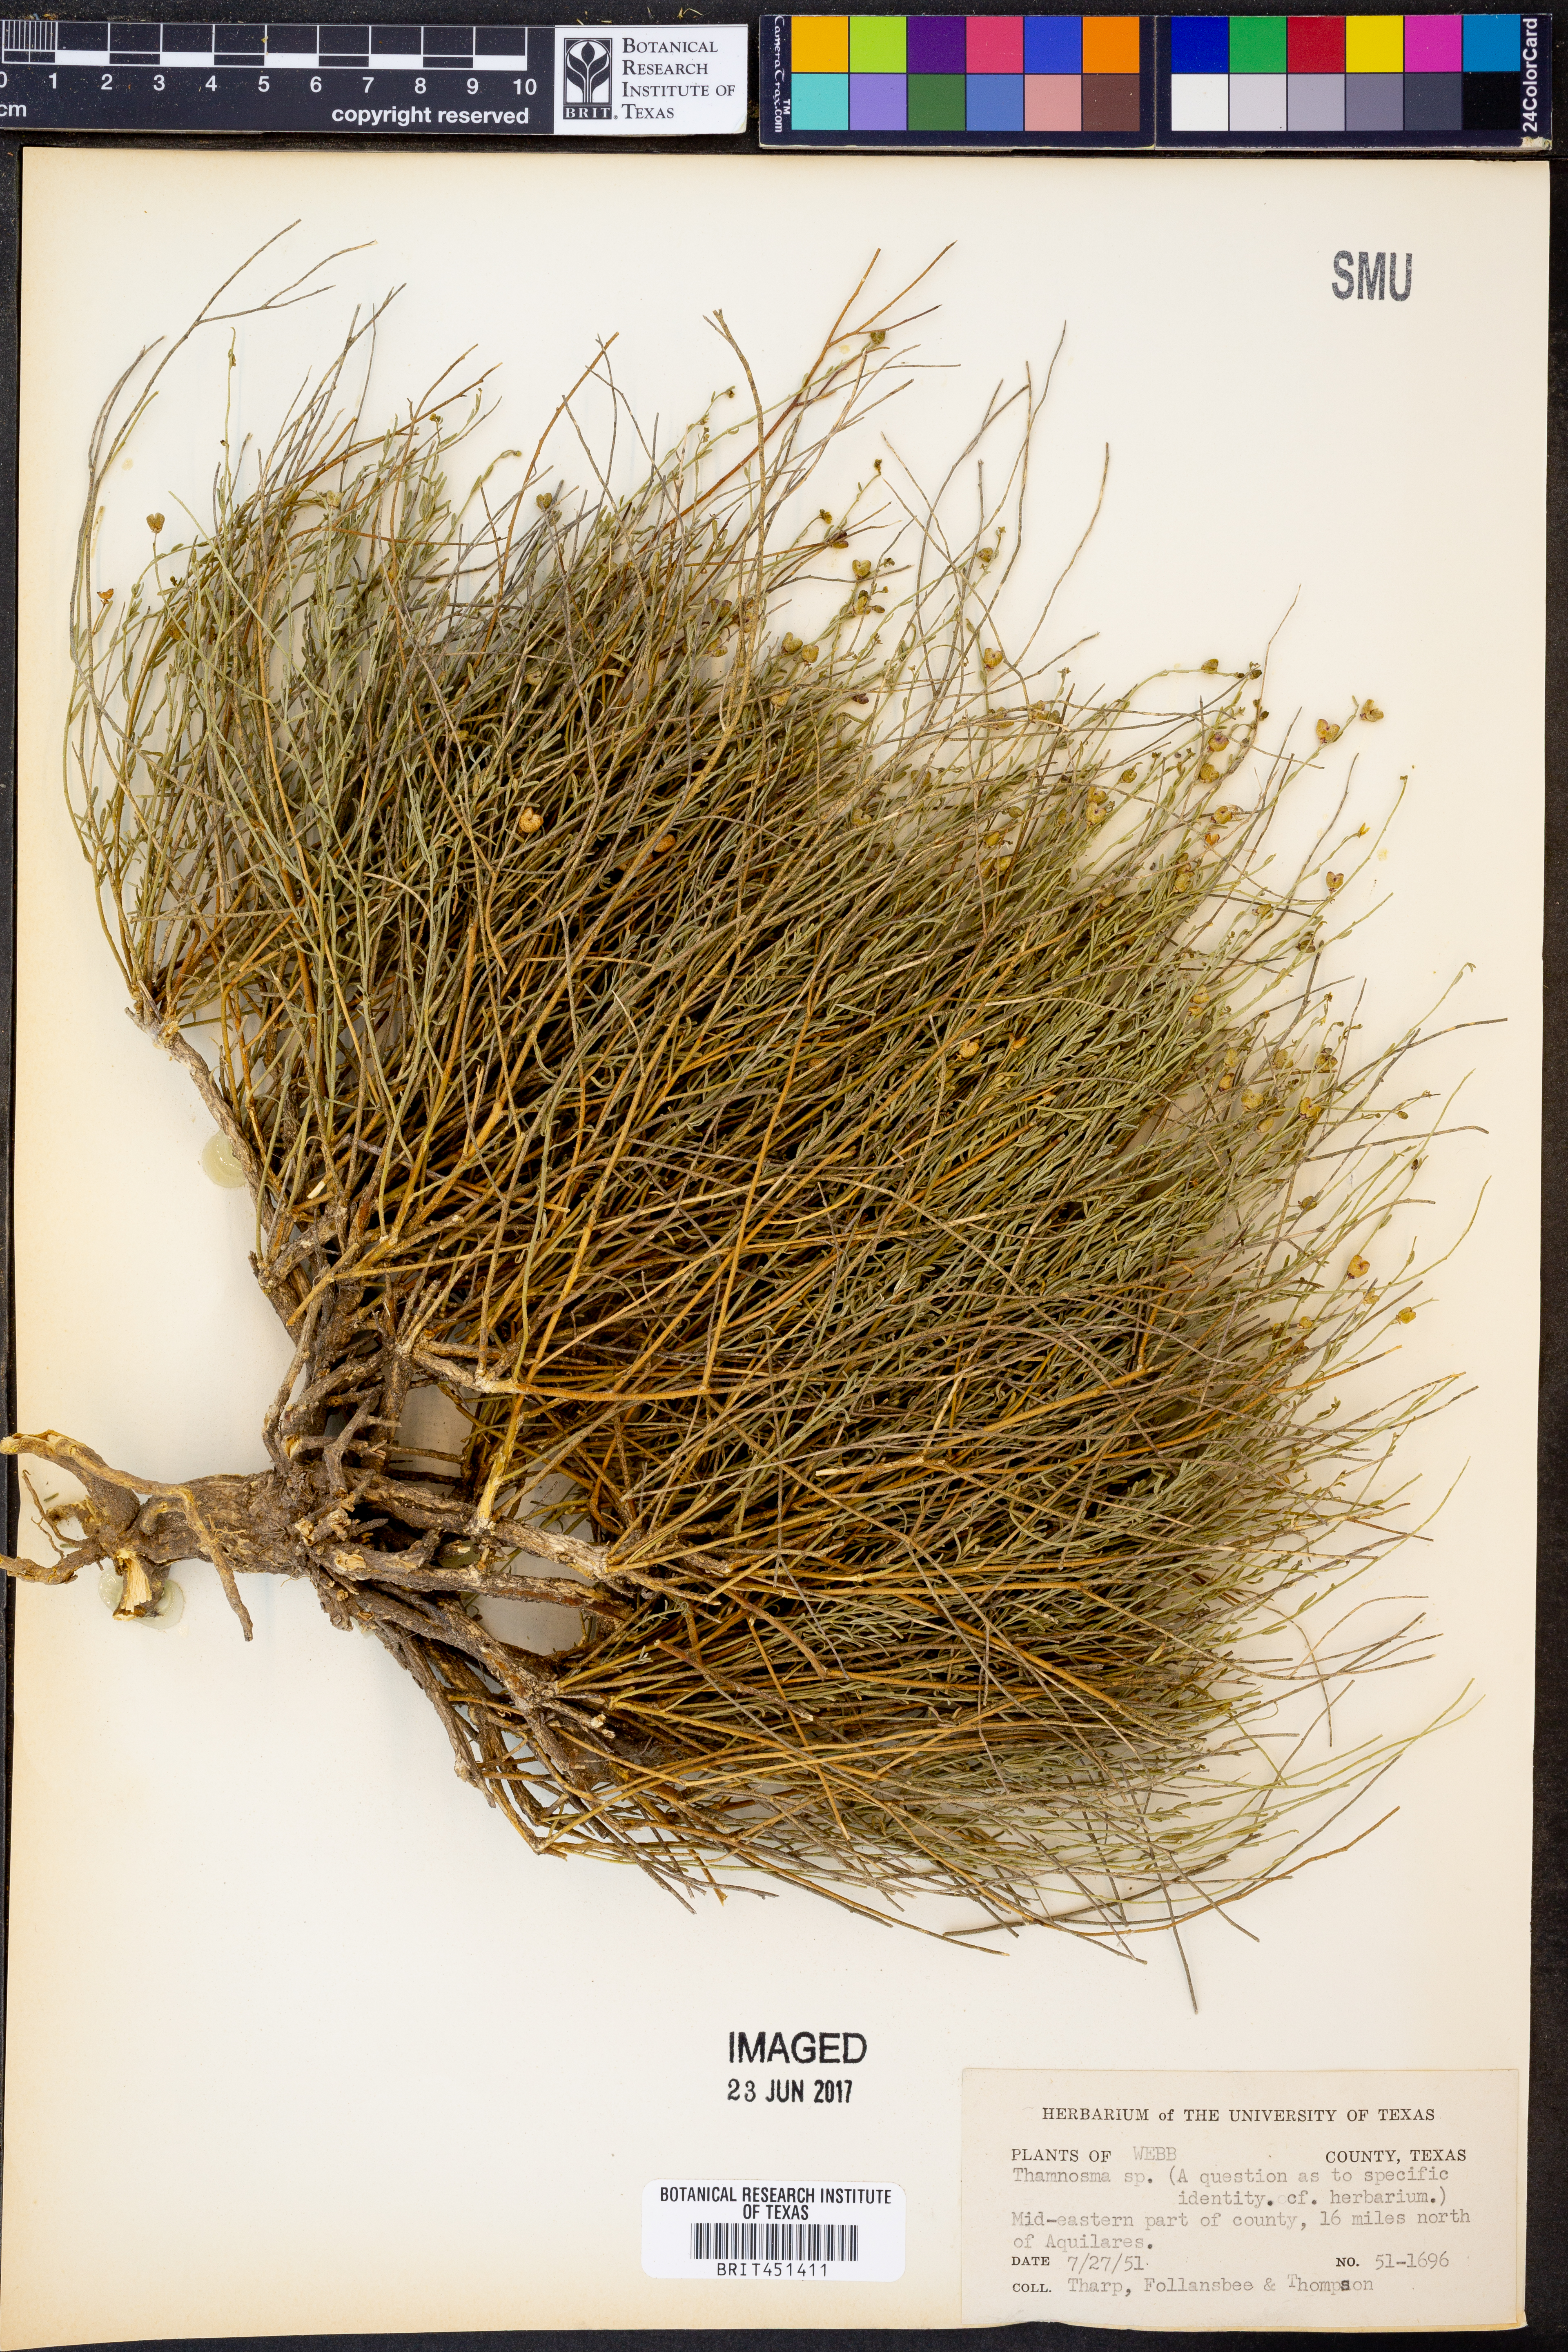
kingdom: Plantae
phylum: Tracheophyta
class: Magnoliopsida
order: Sapindales
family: Rutaceae
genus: Thamnosma
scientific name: Thamnosma
